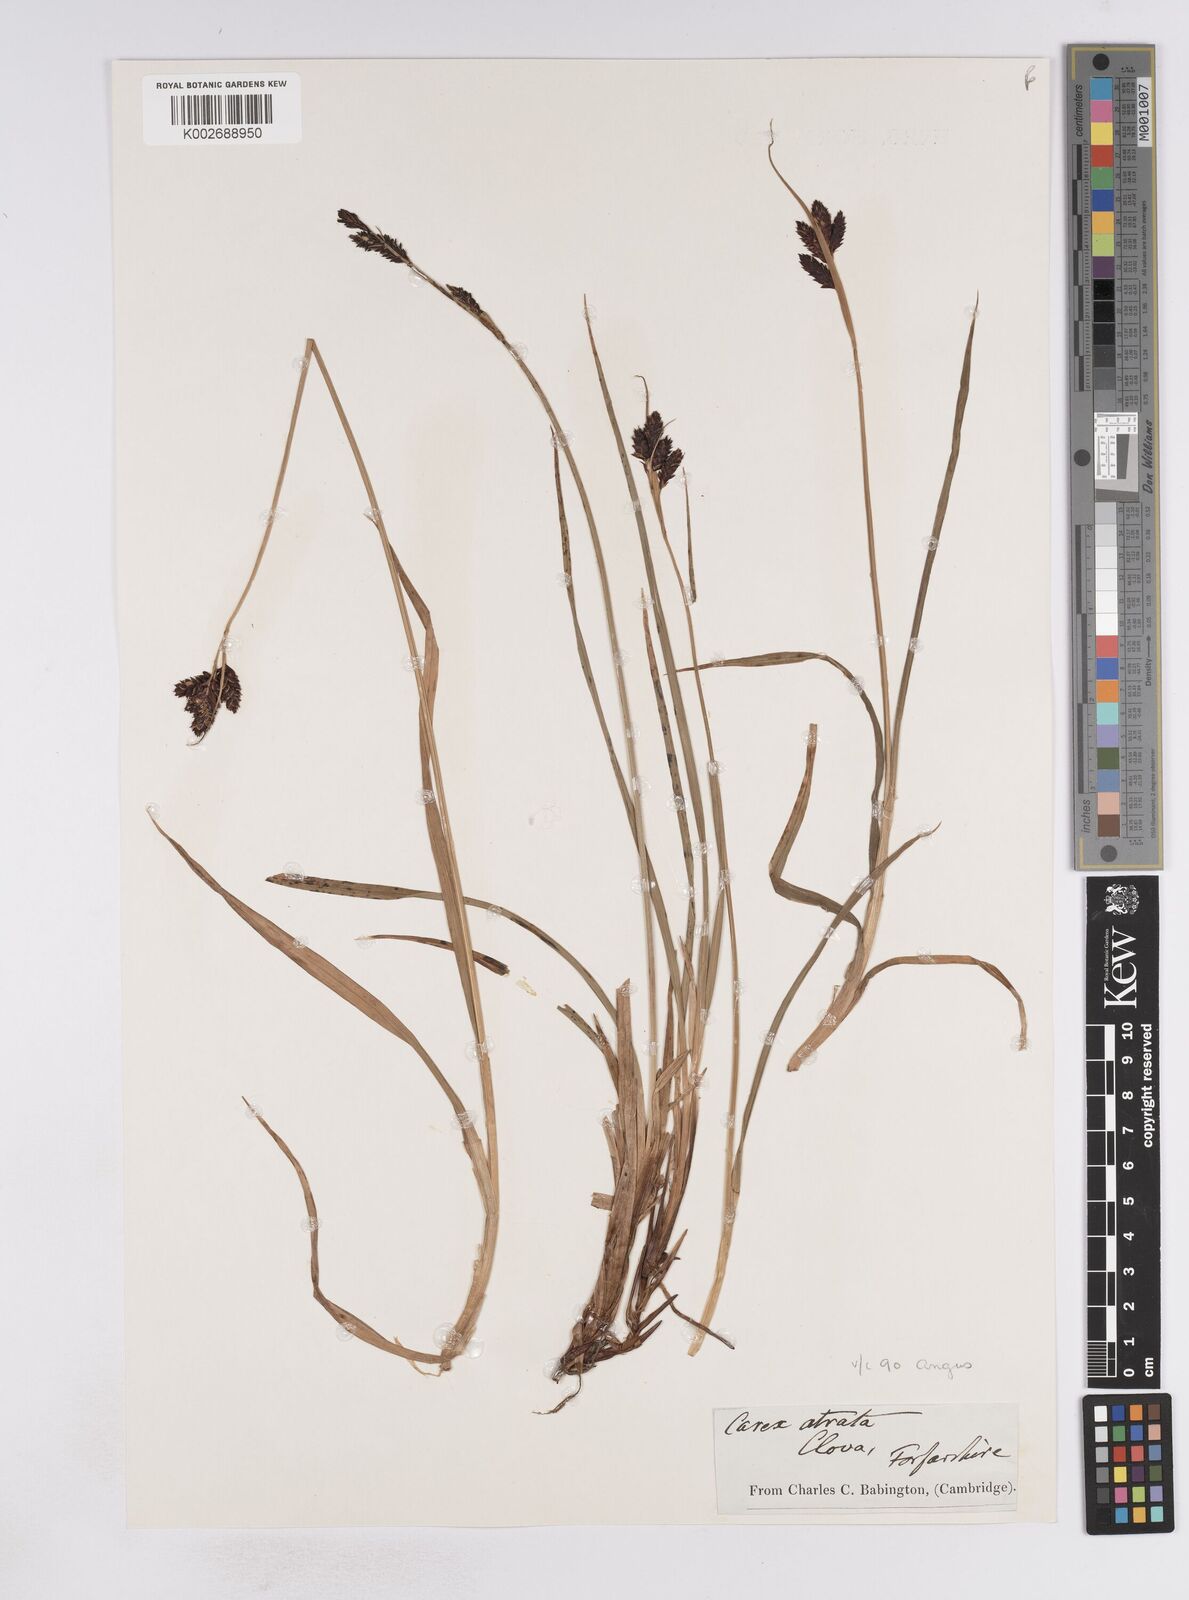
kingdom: Plantae
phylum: Tracheophyta
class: Liliopsida
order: Poales
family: Cyperaceae
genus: Carex
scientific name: Carex atrata
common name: Black alpine sedge
